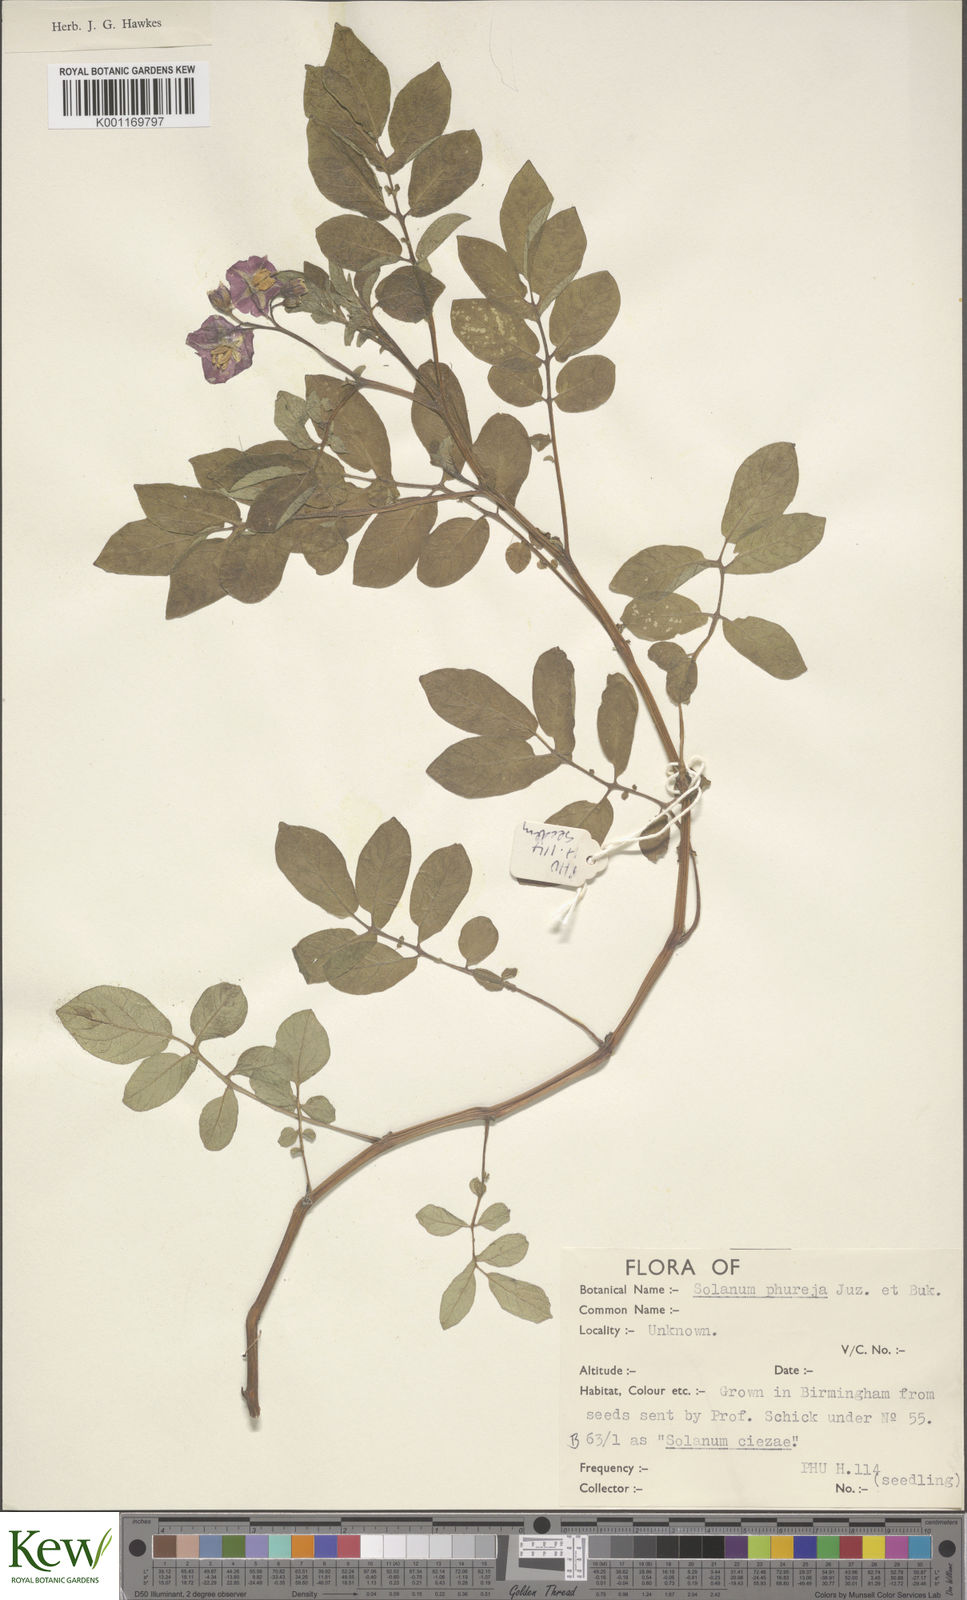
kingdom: Plantae
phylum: Tracheophyta
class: Magnoliopsida
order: Solanales
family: Solanaceae
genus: Solanum
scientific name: Solanum tuberosum
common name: Potato
